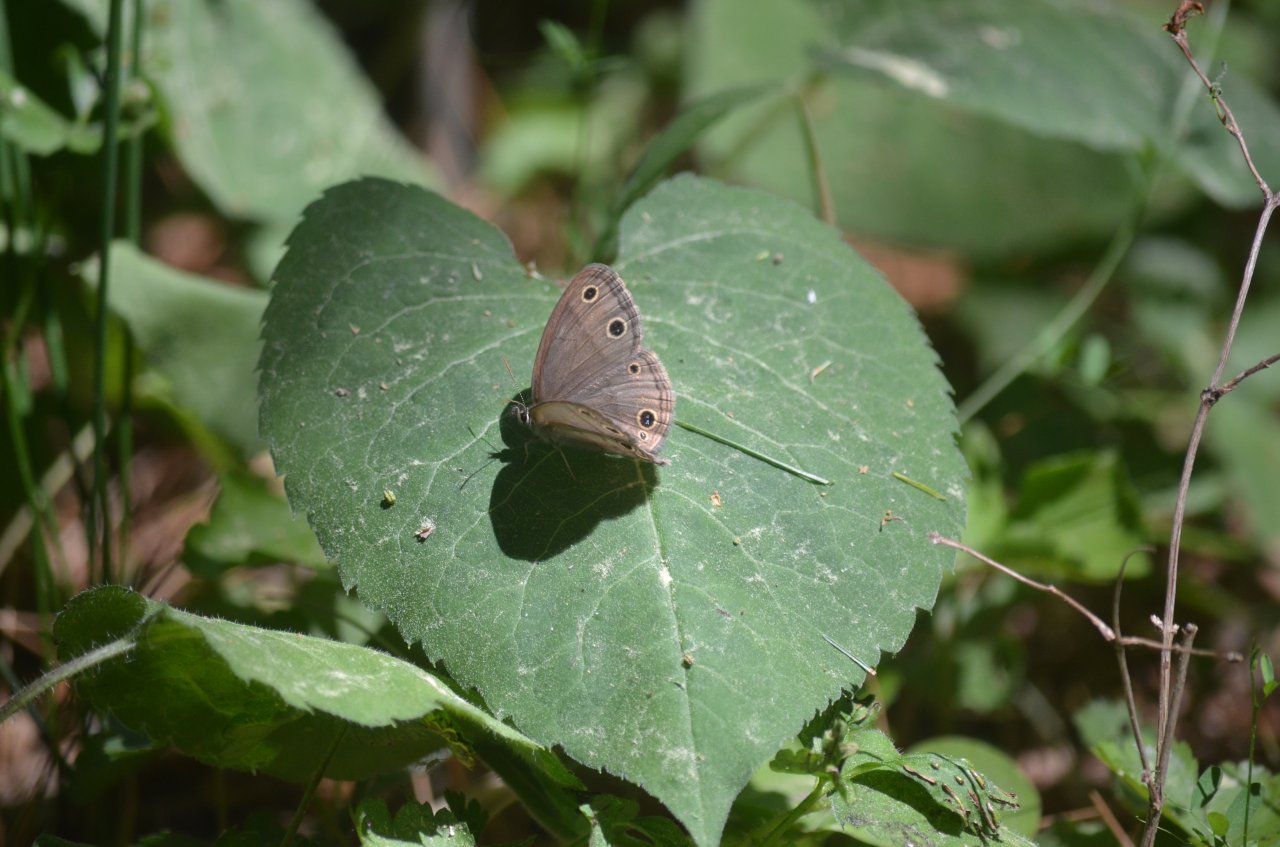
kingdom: Animalia
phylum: Arthropoda
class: Insecta
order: Lepidoptera
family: Nymphalidae
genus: Euptychia
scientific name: Euptychia cymela
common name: Little Wood Satyr
